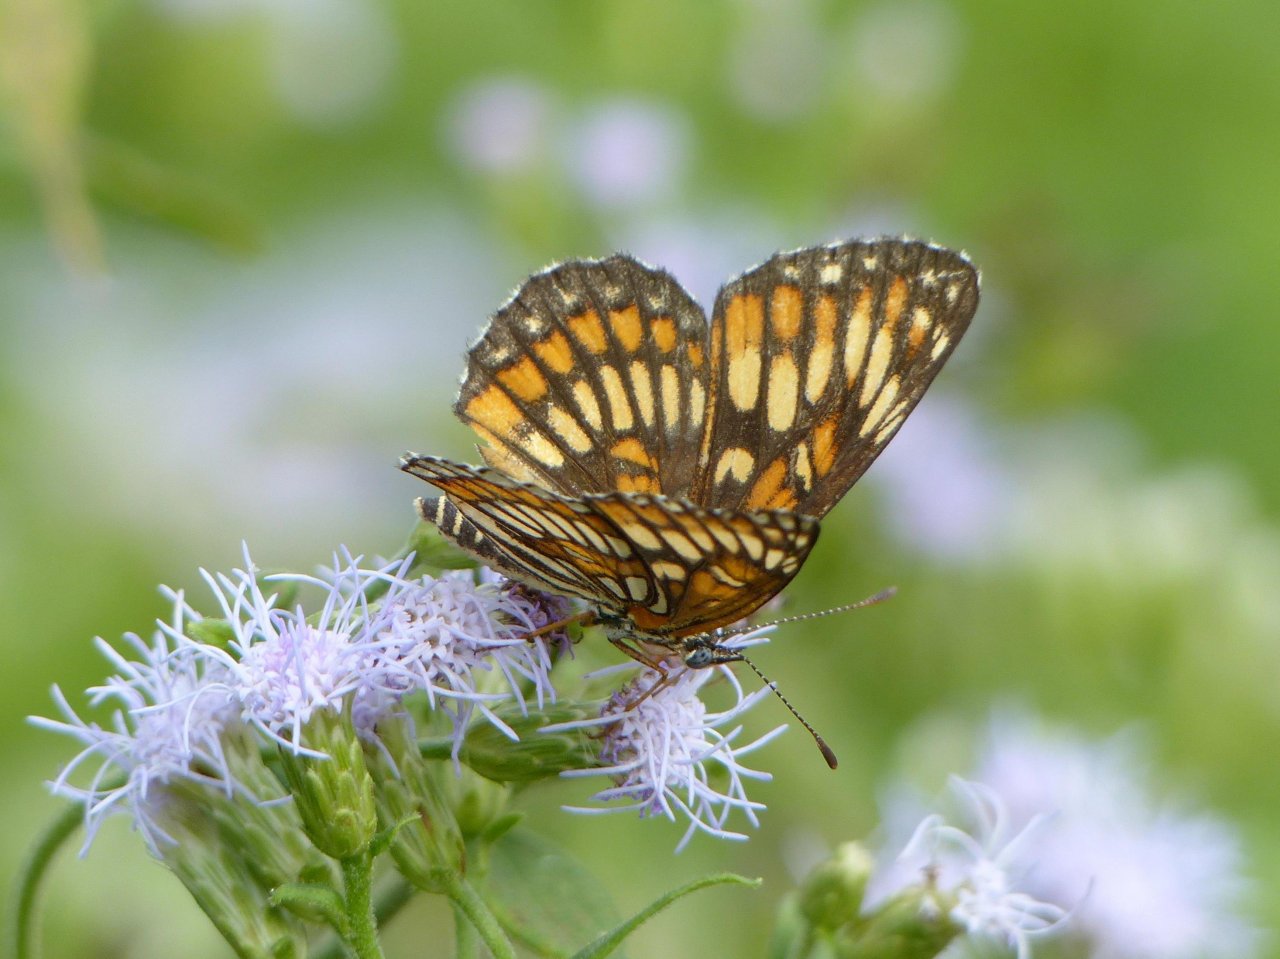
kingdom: Animalia
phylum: Arthropoda
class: Insecta
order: Lepidoptera
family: Nymphalidae
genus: Thessalia
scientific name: Thessalia theona
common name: Theona Checkerspot
